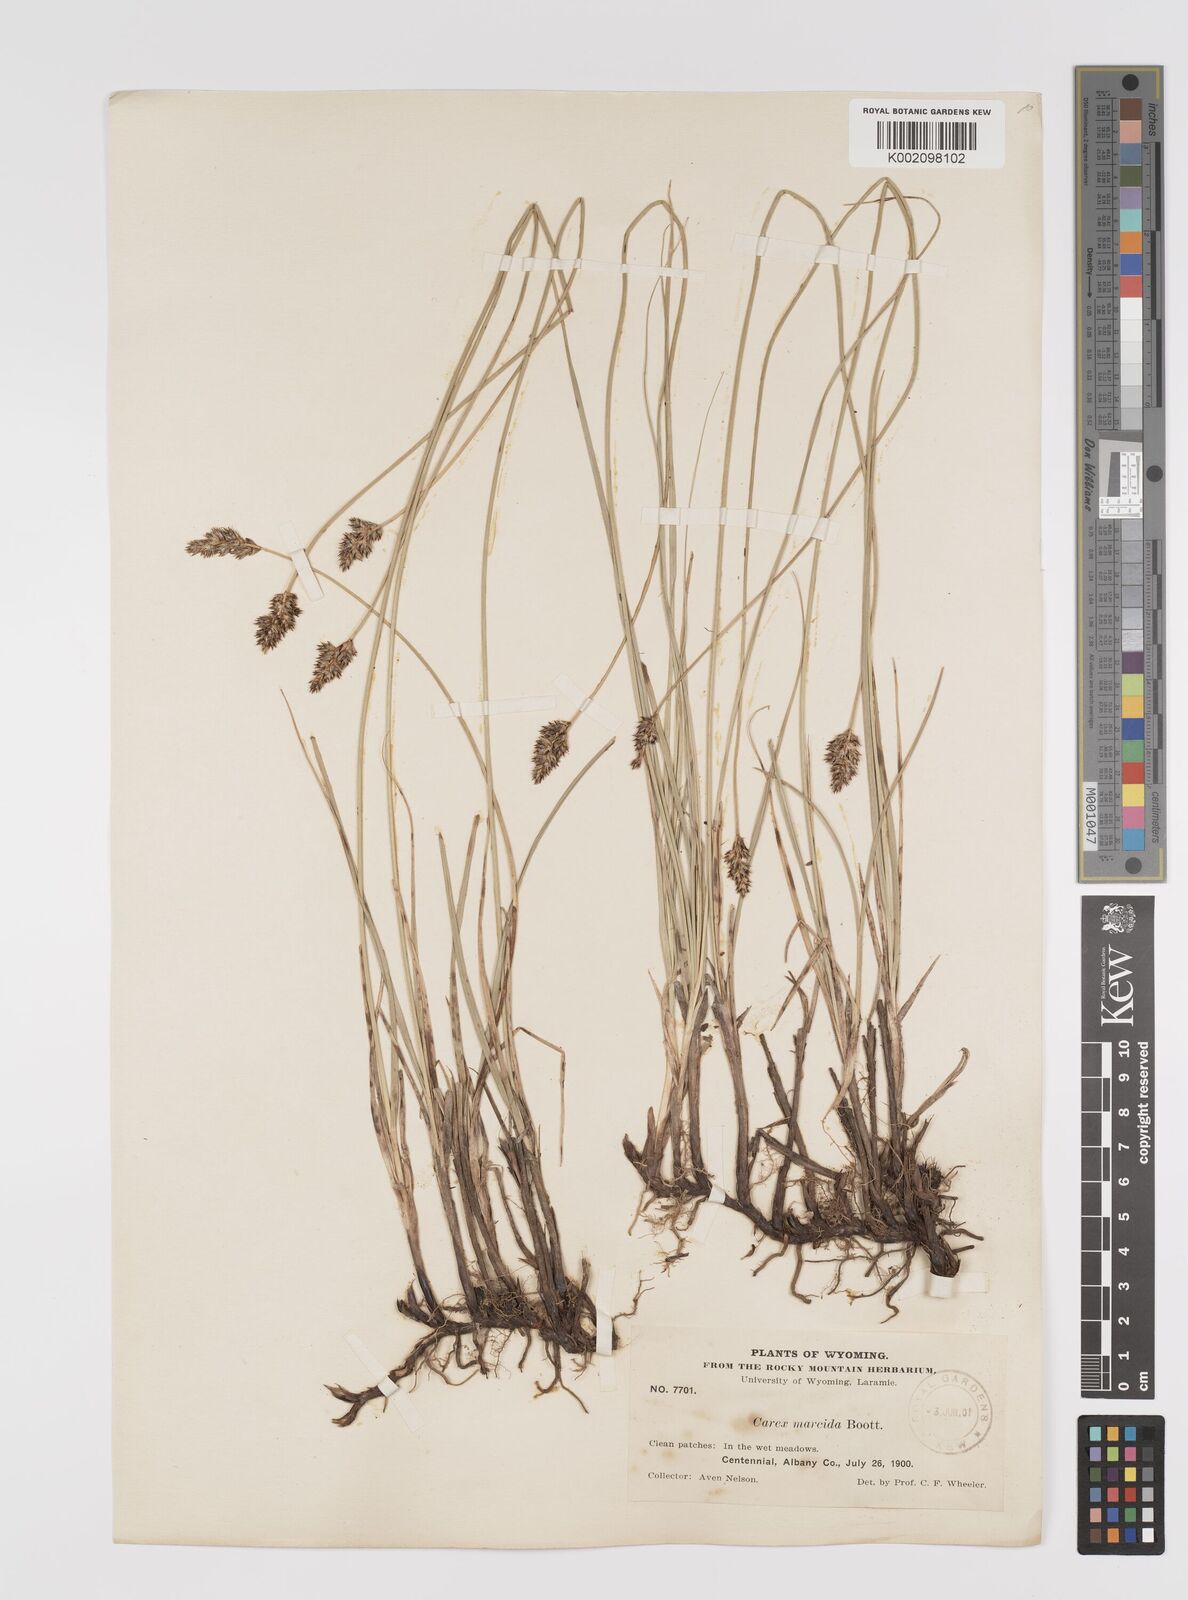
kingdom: Plantae
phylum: Tracheophyta
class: Liliopsida
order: Poales
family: Cyperaceae
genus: Carex
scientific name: Carex praegracilis
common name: Black creeper sedge
